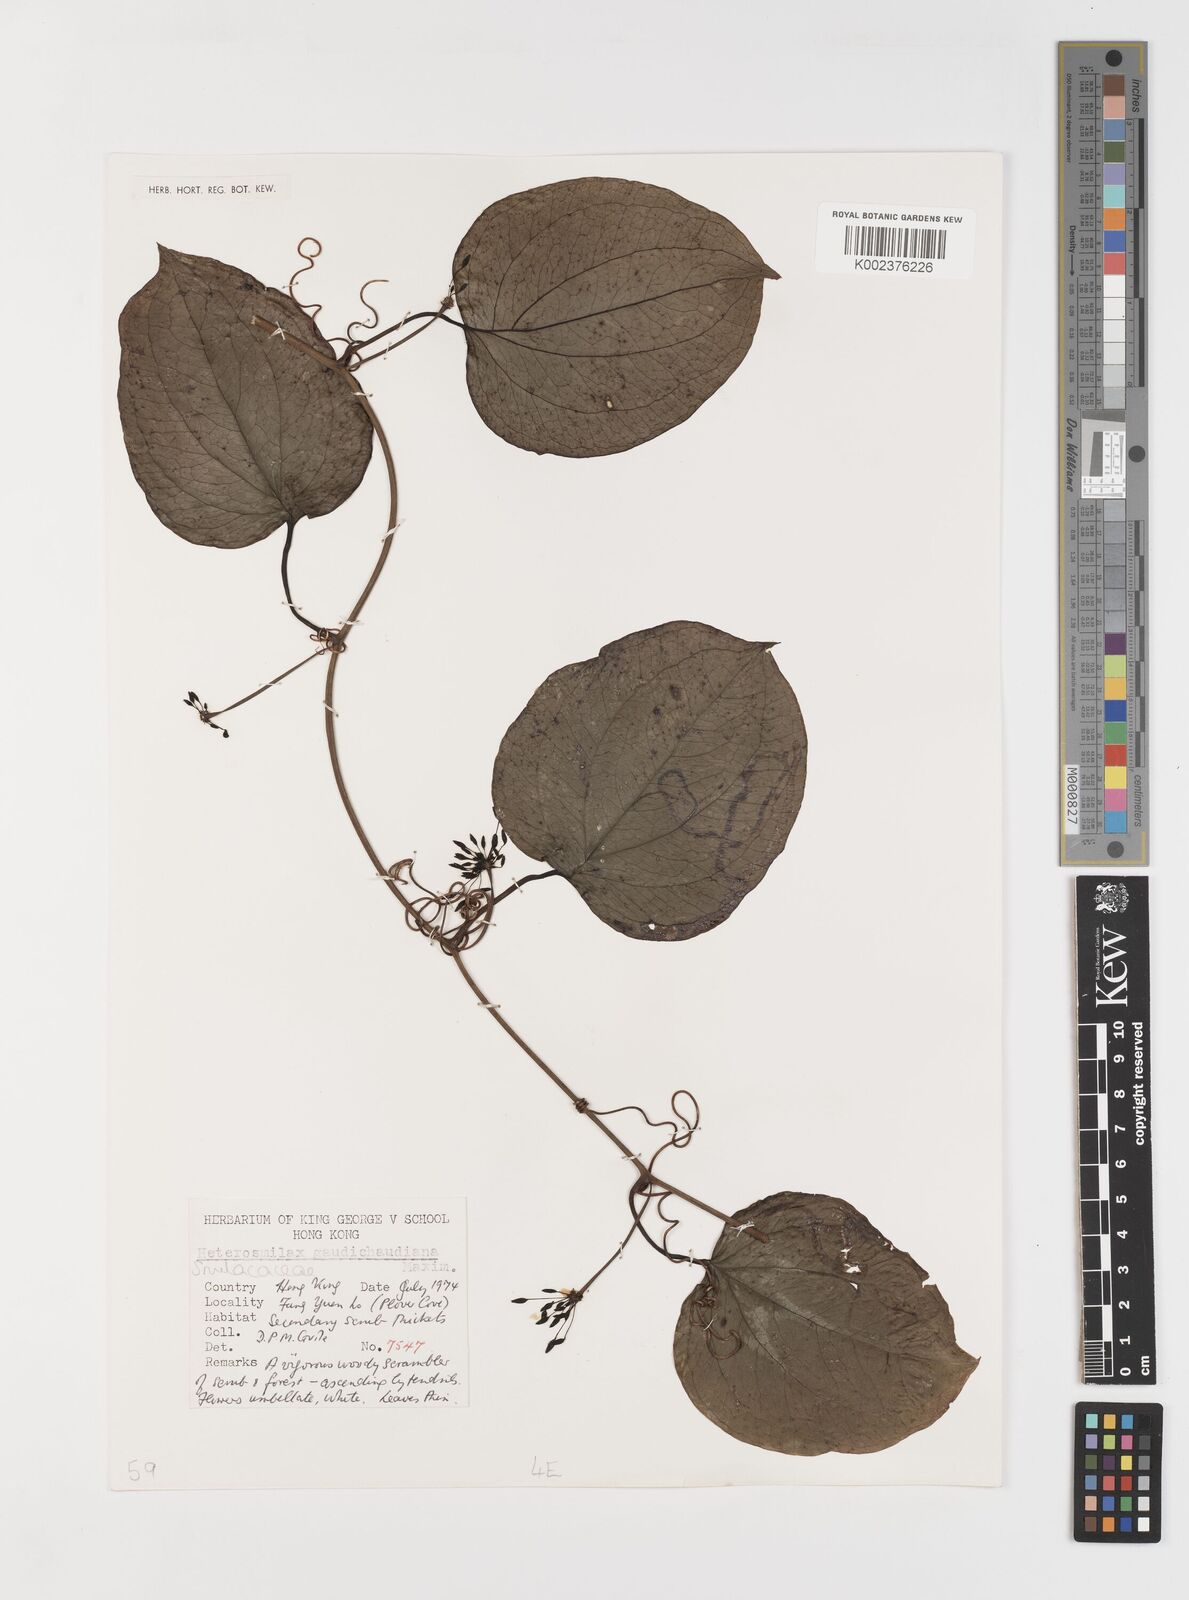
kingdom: Plantae
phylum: Tracheophyta
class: Liliopsida
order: Liliales
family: Smilacaceae
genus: Smilax
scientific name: Smilax gaudichaudiana
